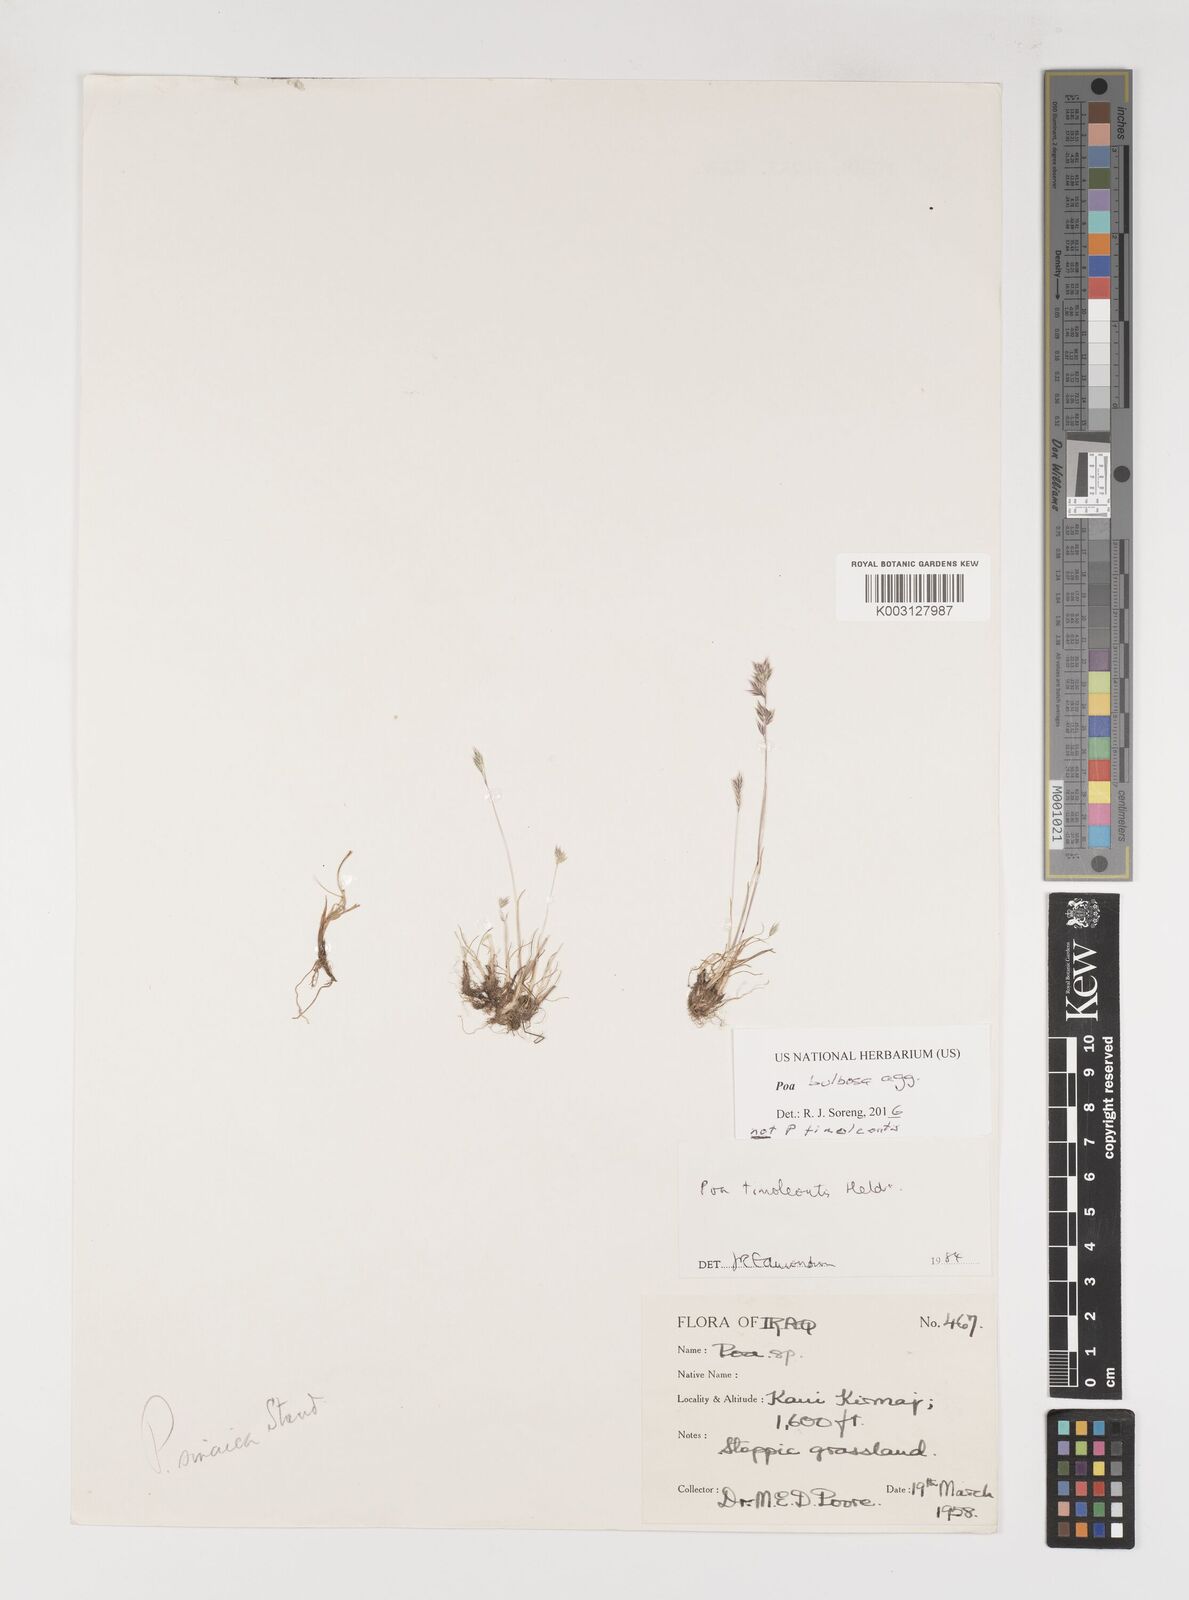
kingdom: Plantae
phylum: Tracheophyta
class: Liliopsida
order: Poales
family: Poaceae
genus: Poa
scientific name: Poa bulbosa
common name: Bulbous bluegrass
